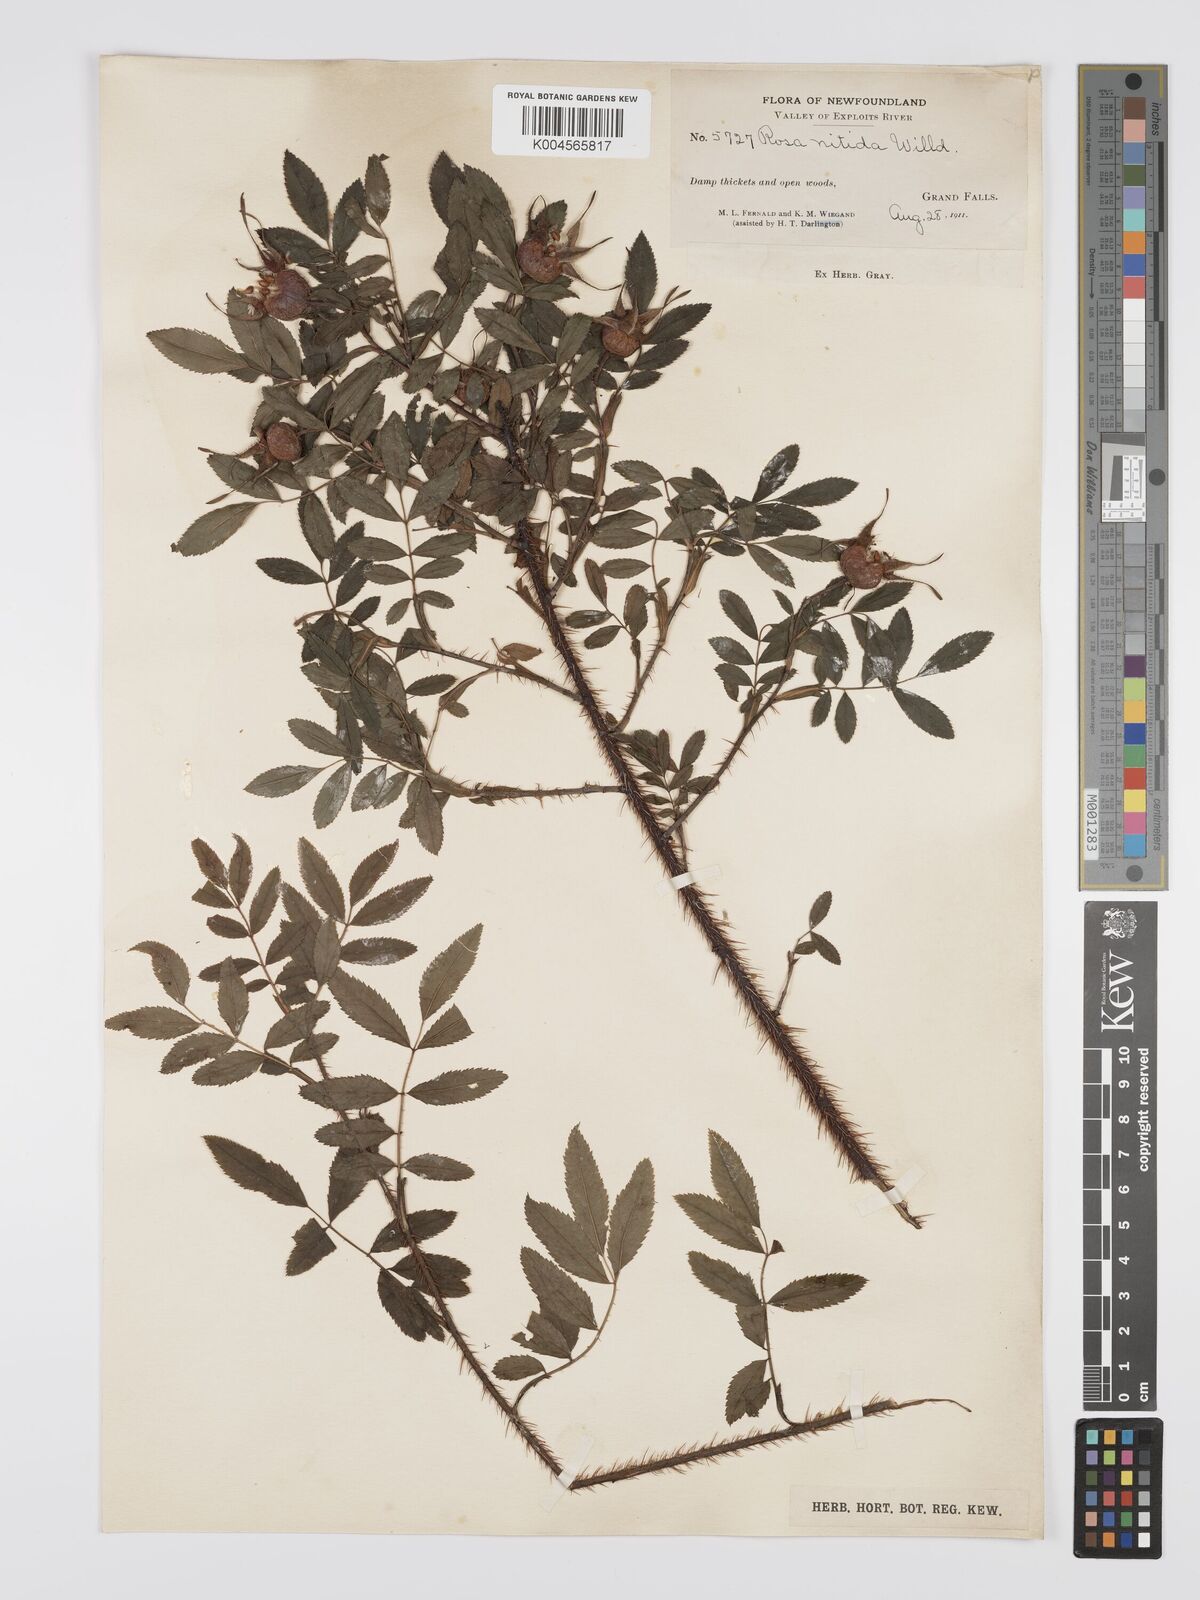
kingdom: Plantae
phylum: Tracheophyta
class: Magnoliopsida
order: Rosales
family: Rosaceae
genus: Rosa
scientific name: Rosa nitida
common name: New england rose
